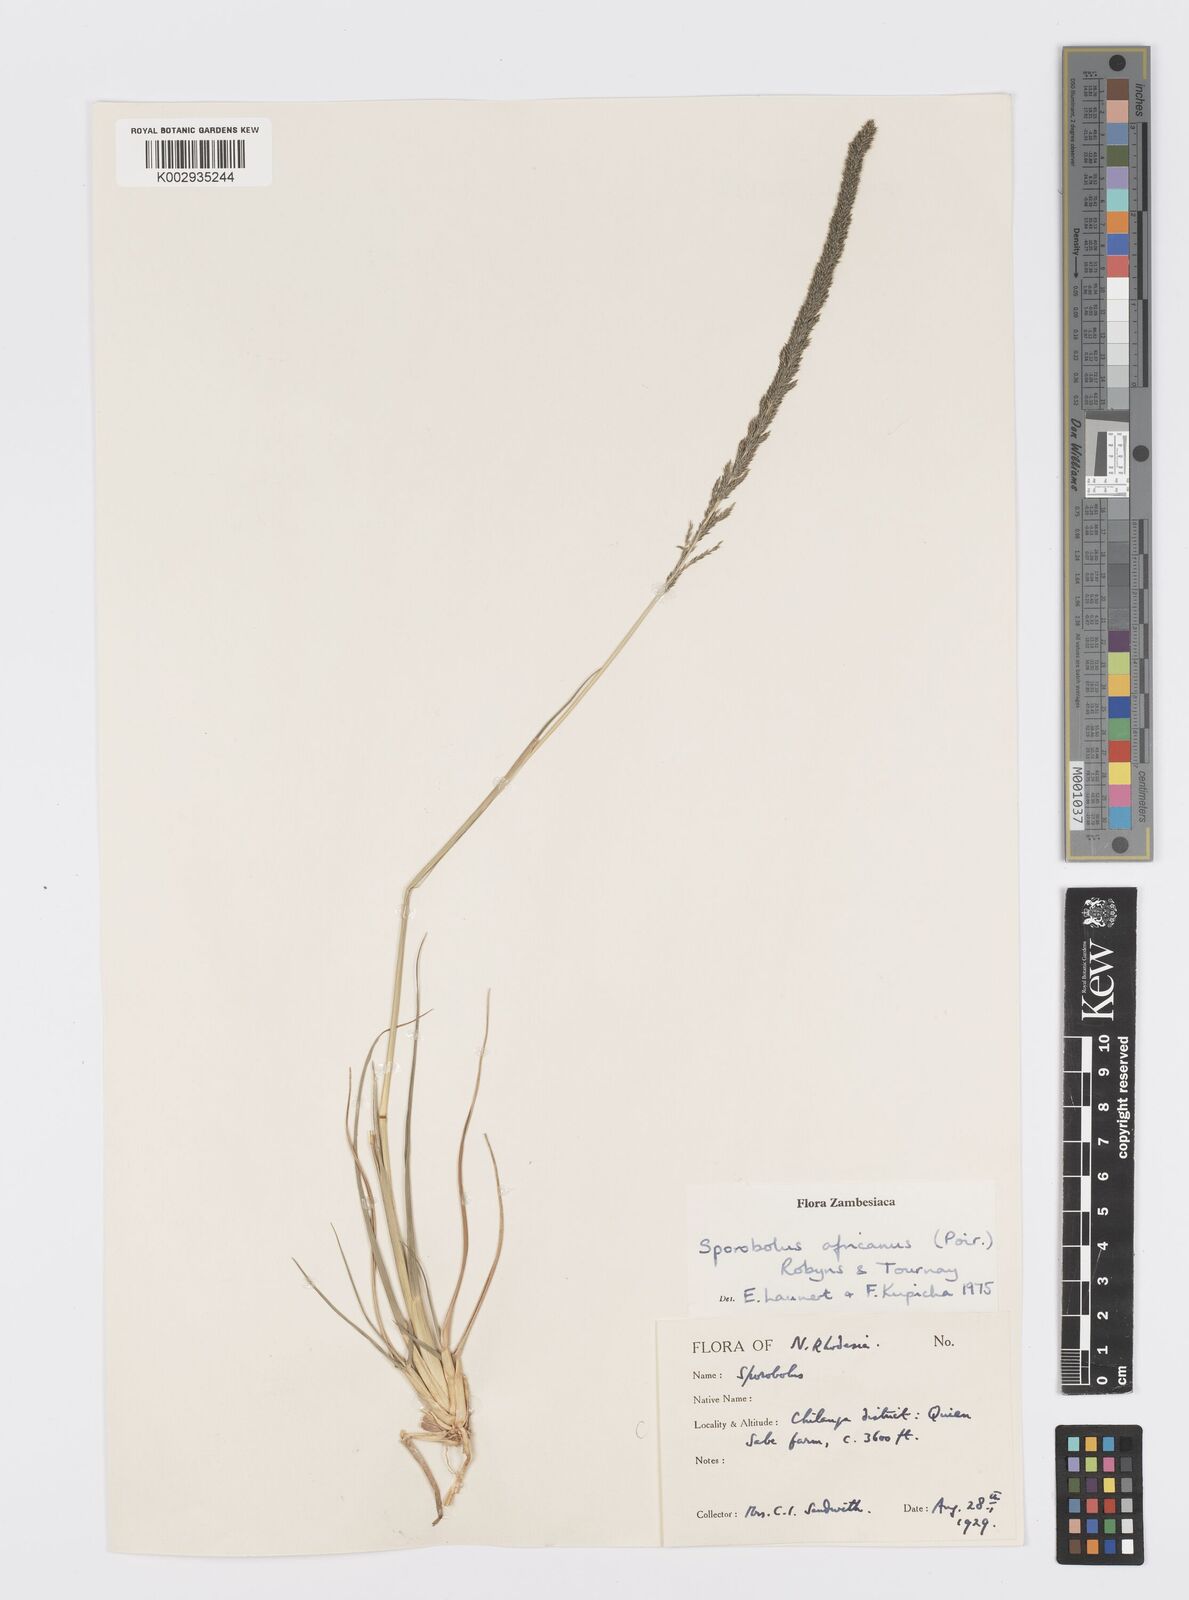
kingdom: Plantae
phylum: Tracheophyta
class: Liliopsida
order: Poales
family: Poaceae
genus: Sporobolus
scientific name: Sporobolus africanus
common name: African dropseed
